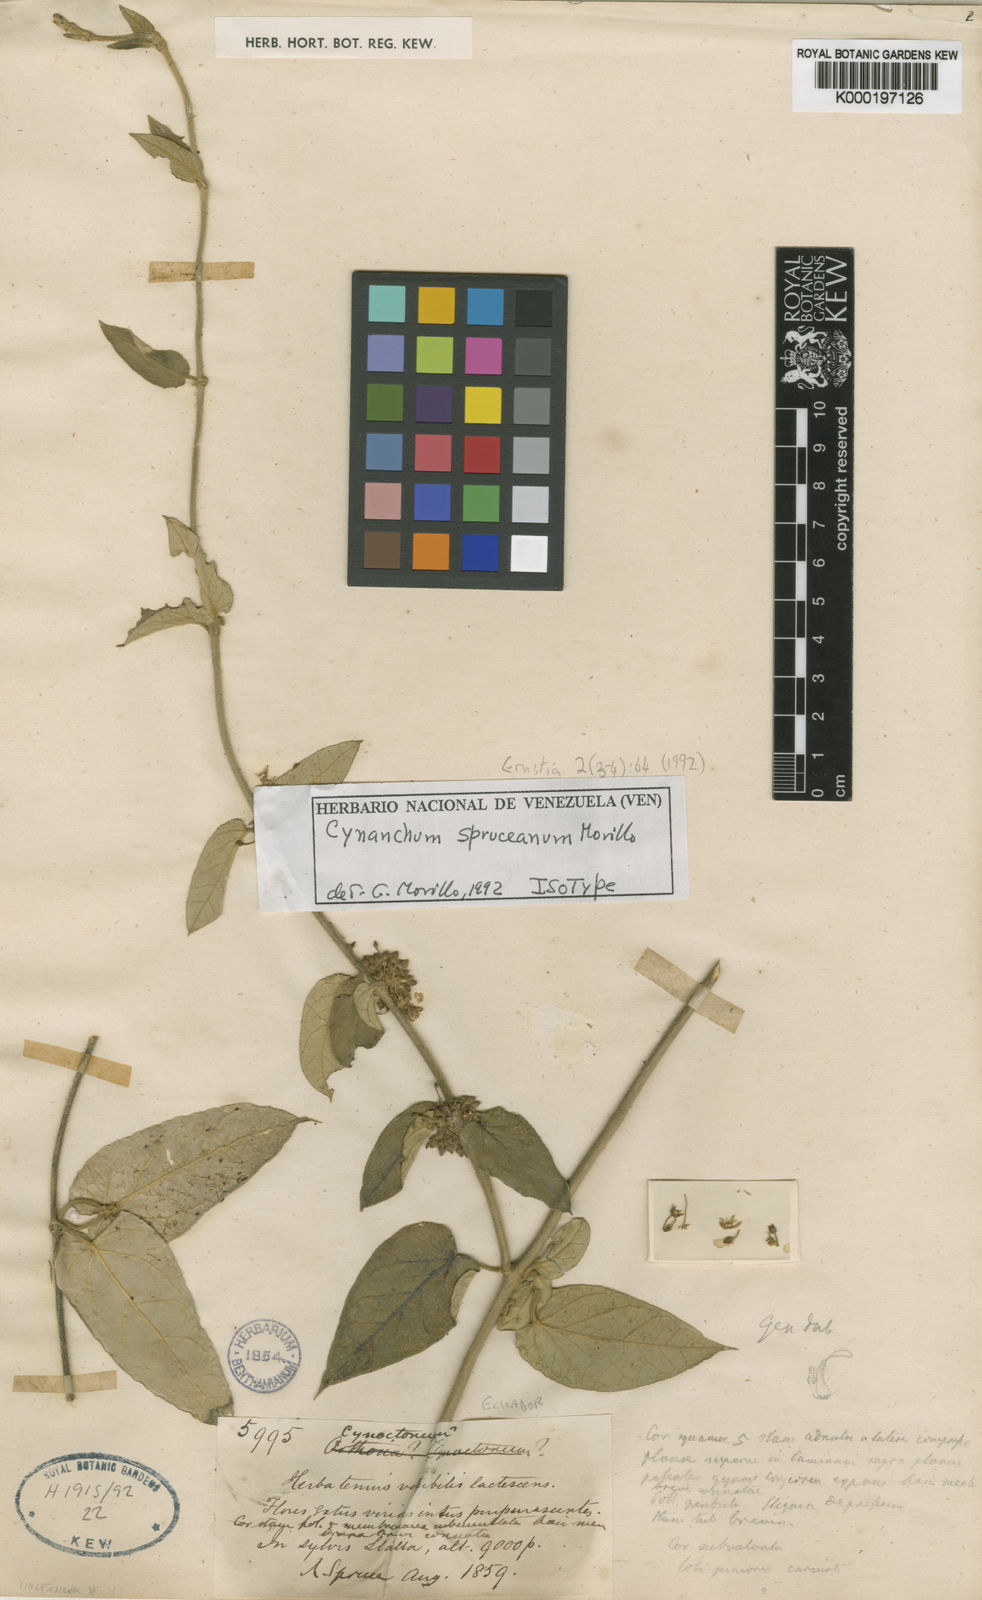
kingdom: Plantae
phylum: Tracheophyta
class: Magnoliopsida
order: Gentianales
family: Apocynaceae
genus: Metastelma
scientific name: Metastelma spruceanum
